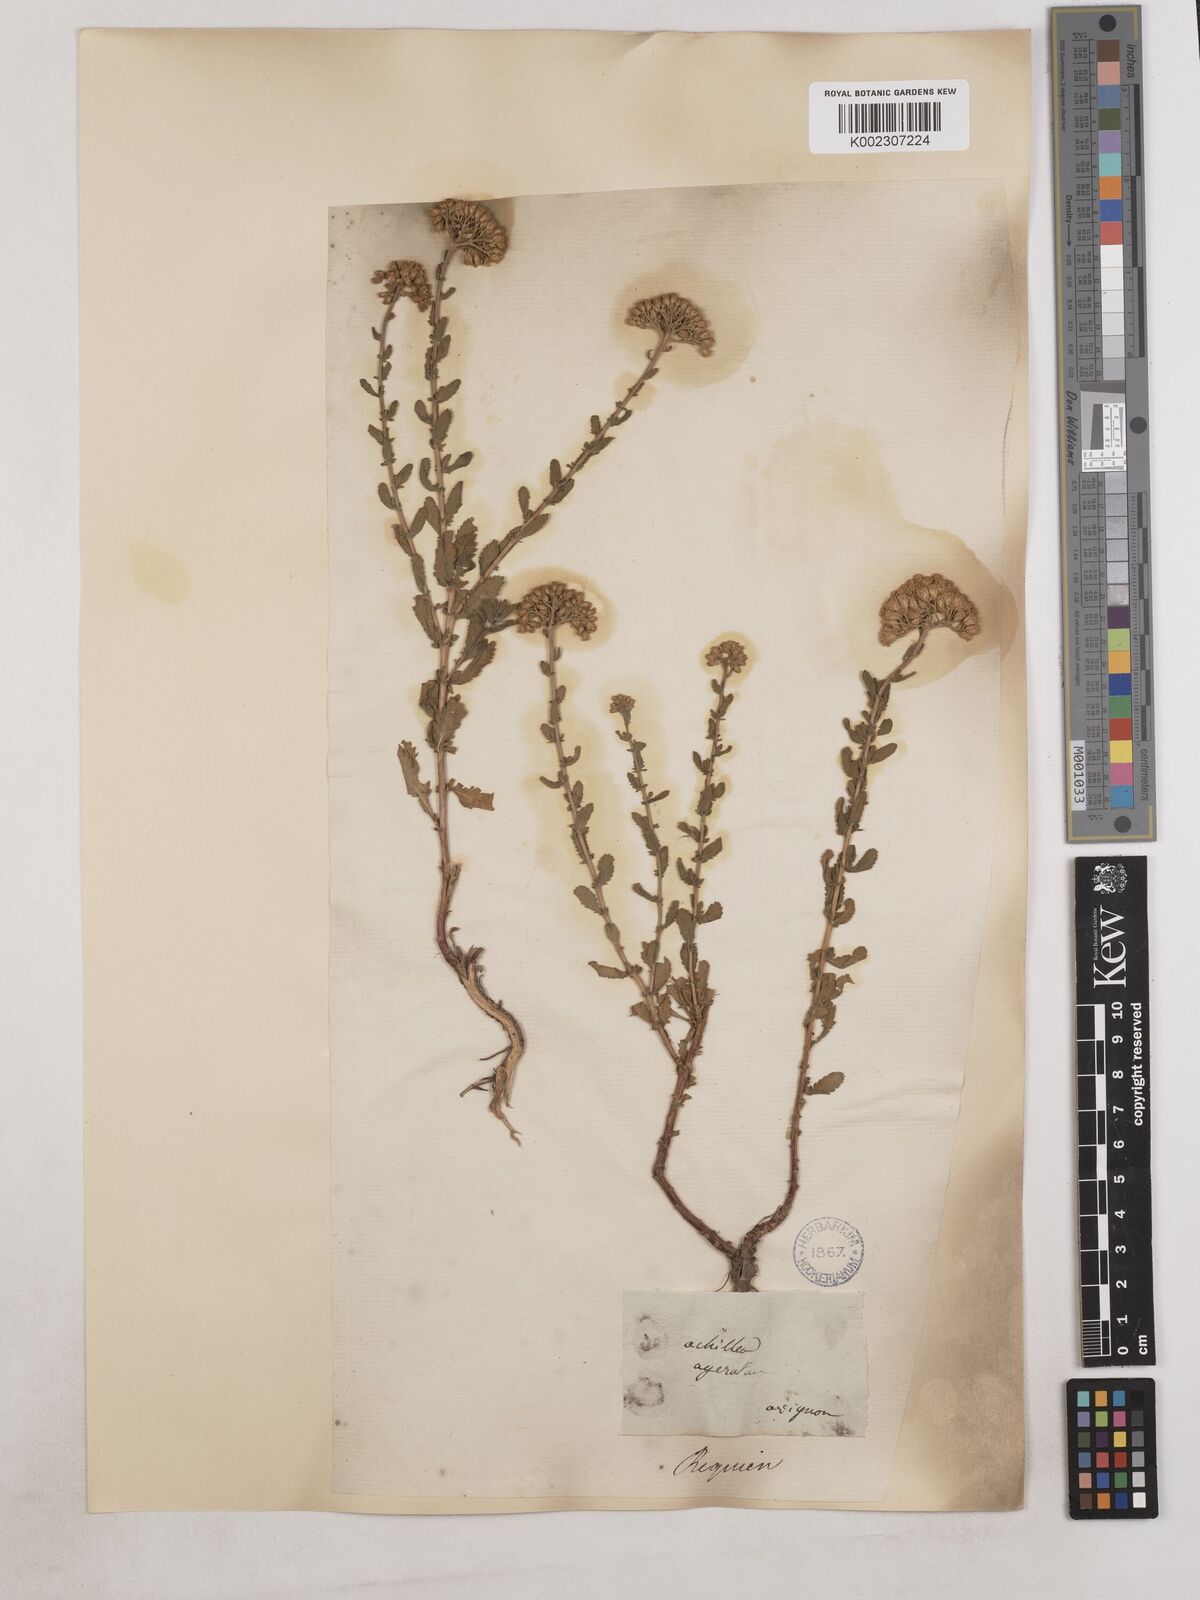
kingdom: Plantae
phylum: Tracheophyta
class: Magnoliopsida
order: Asterales
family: Asteraceae
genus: Achillea
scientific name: Achillea ageratum
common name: Sweet-nancy
